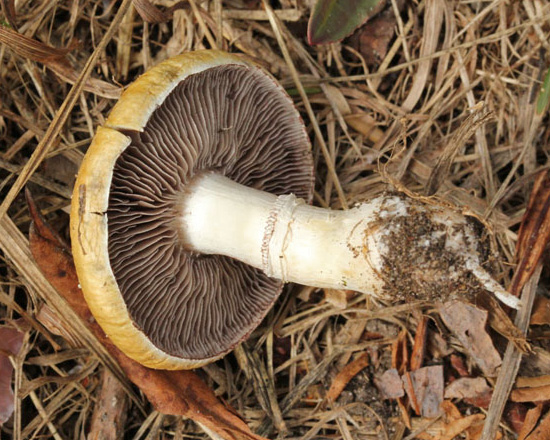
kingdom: Fungi
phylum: Basidiomycota
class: Agaricomycetes
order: Agaricales
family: Hymenogastraceae
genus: Psilocybe
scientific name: Psilocybe coronilla
